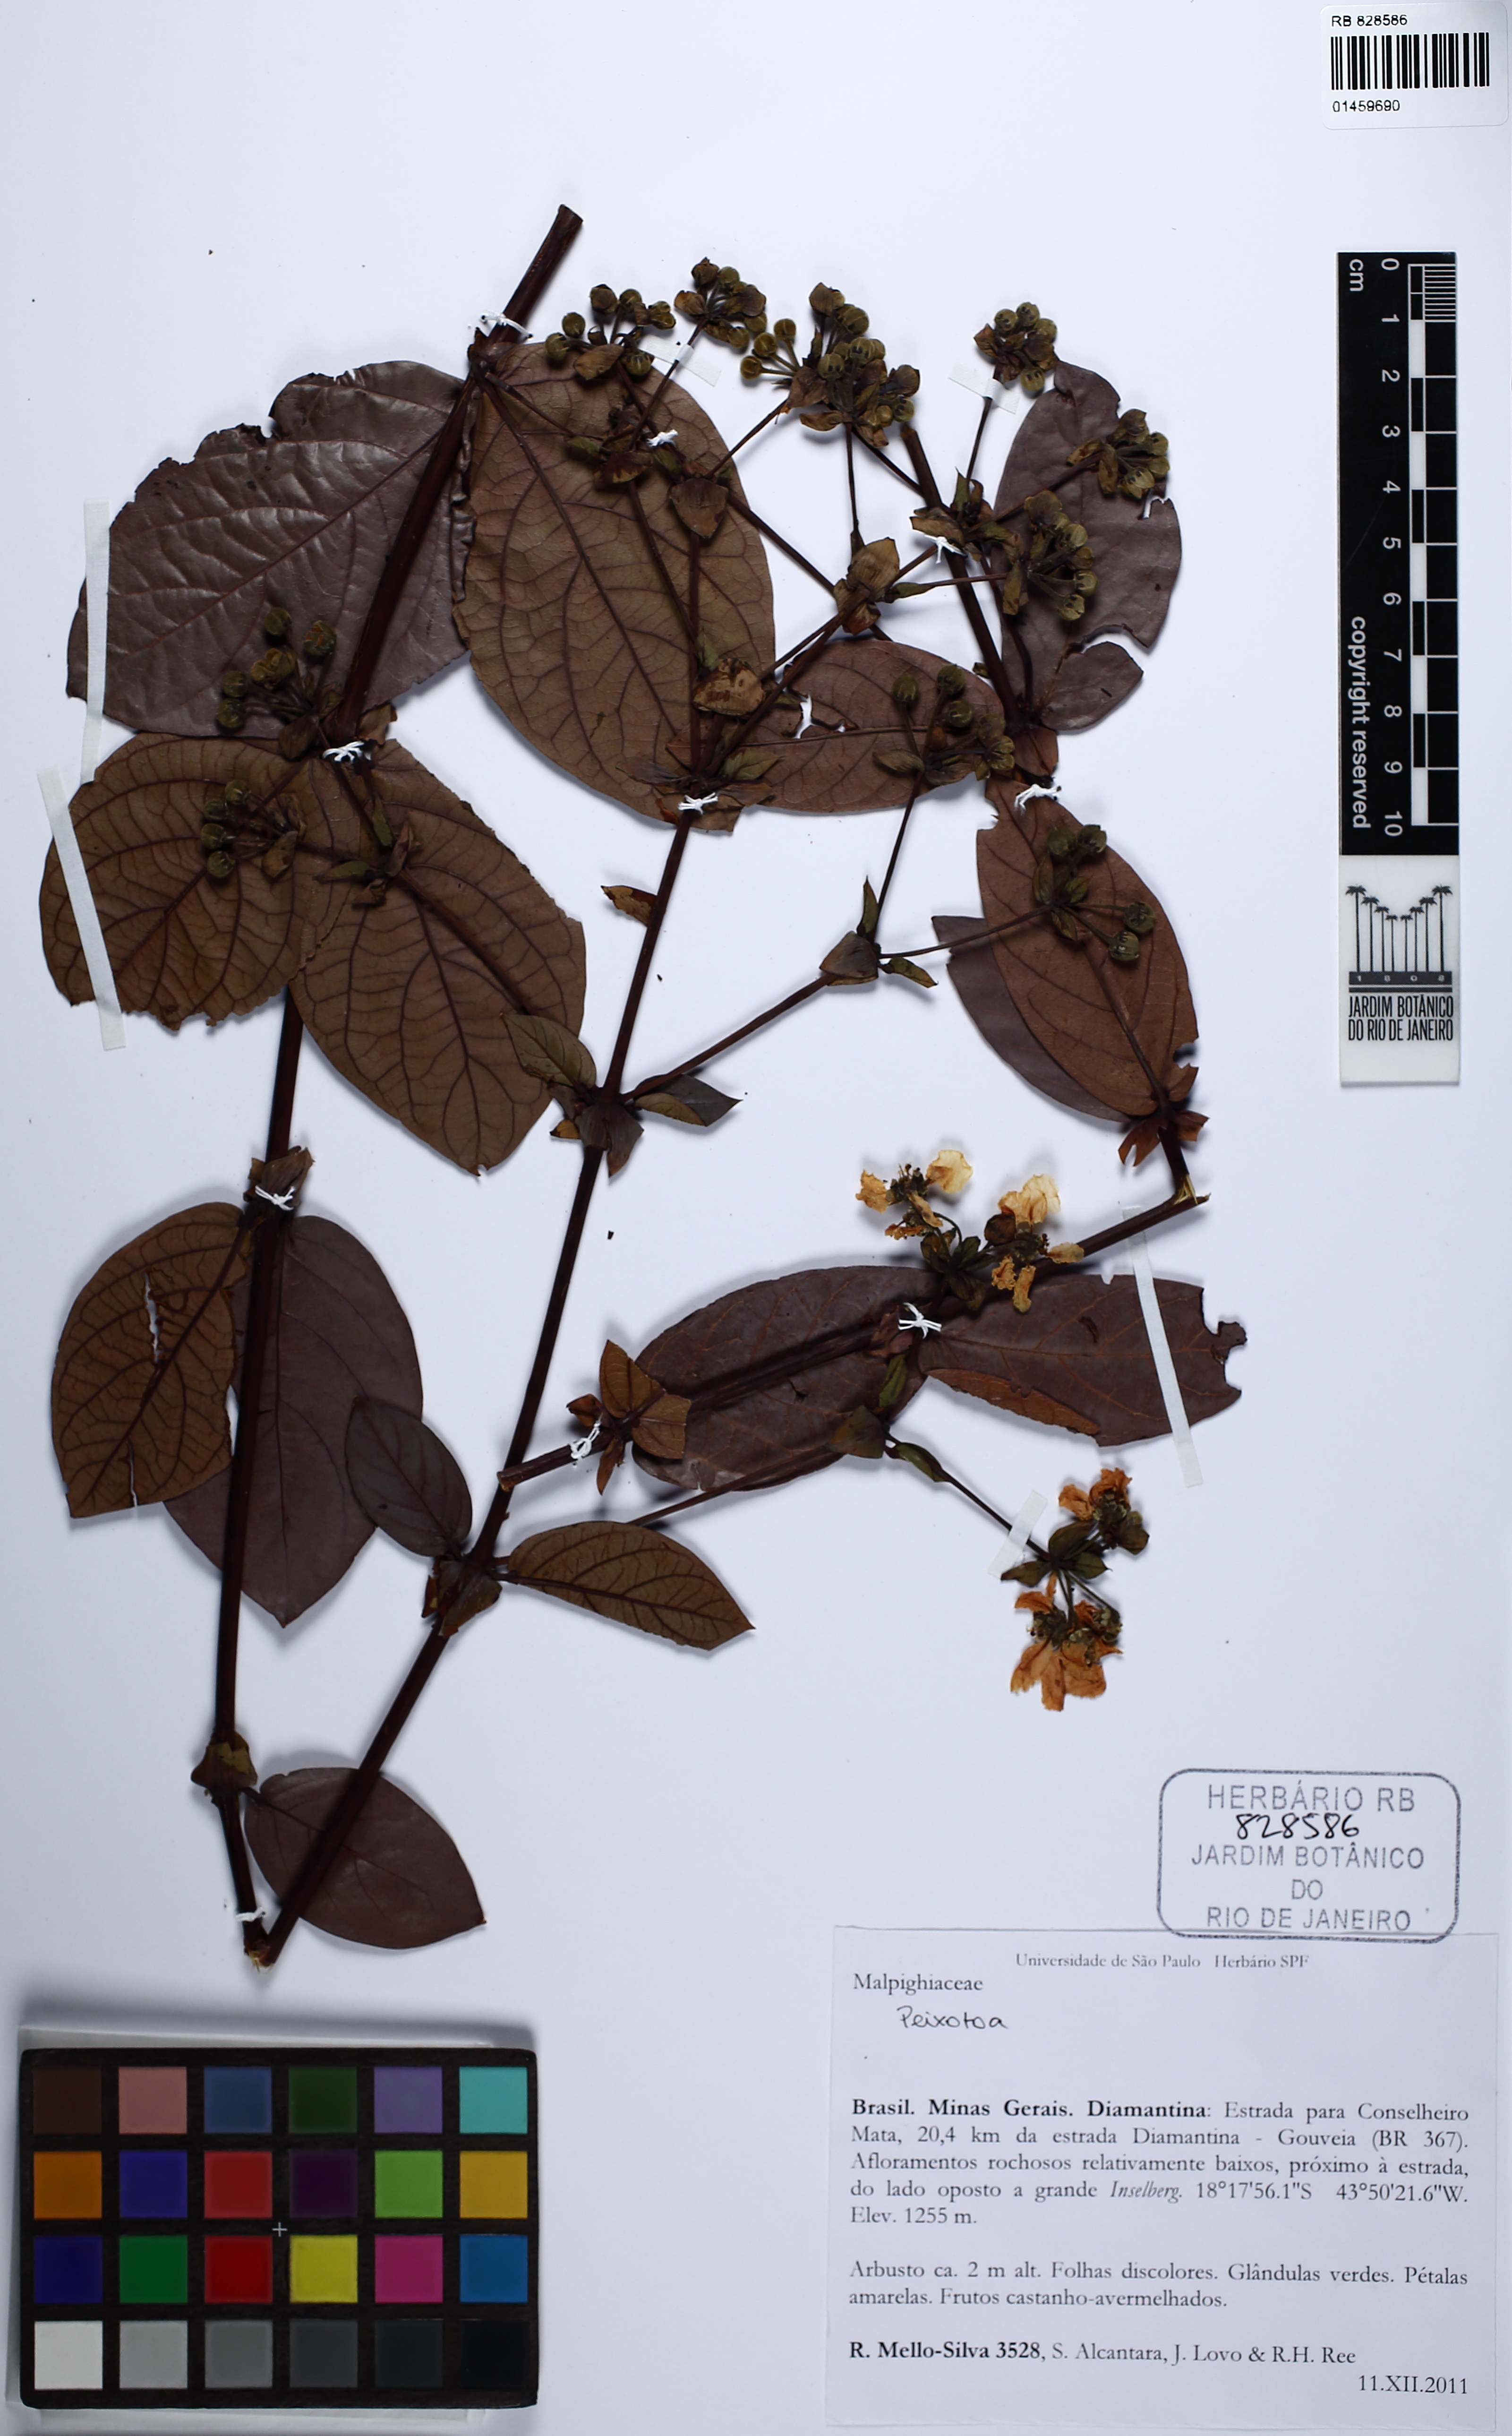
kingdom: Plantae
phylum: Tracheophyta
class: Magnoliopsida
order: Malpighiales
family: Malpighiaceae
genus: Peixotoa
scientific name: Peixotoa
